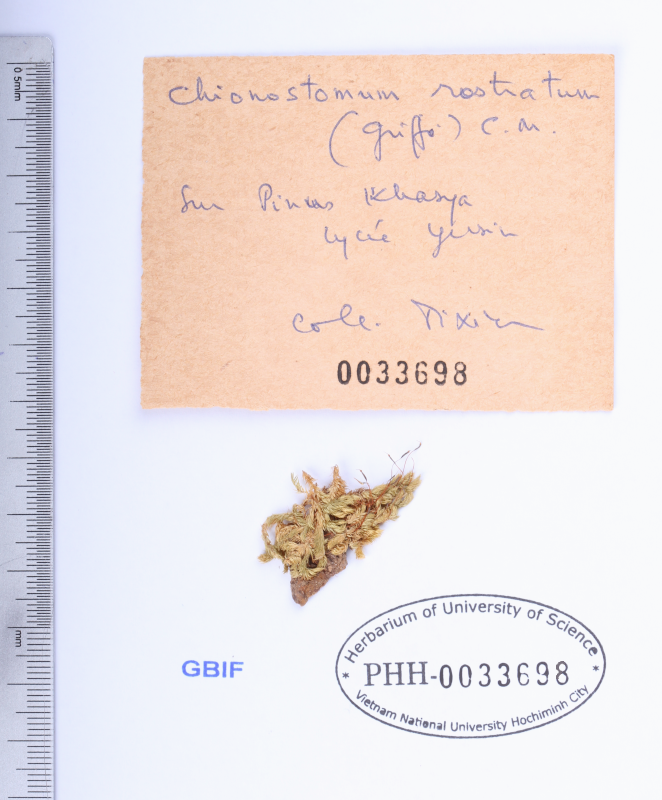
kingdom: Plantae
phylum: Bryophyta
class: Bryopsida
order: Hypnales
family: Sematophyllaceae
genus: Chionostomum
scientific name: Chionostomum rostratum
